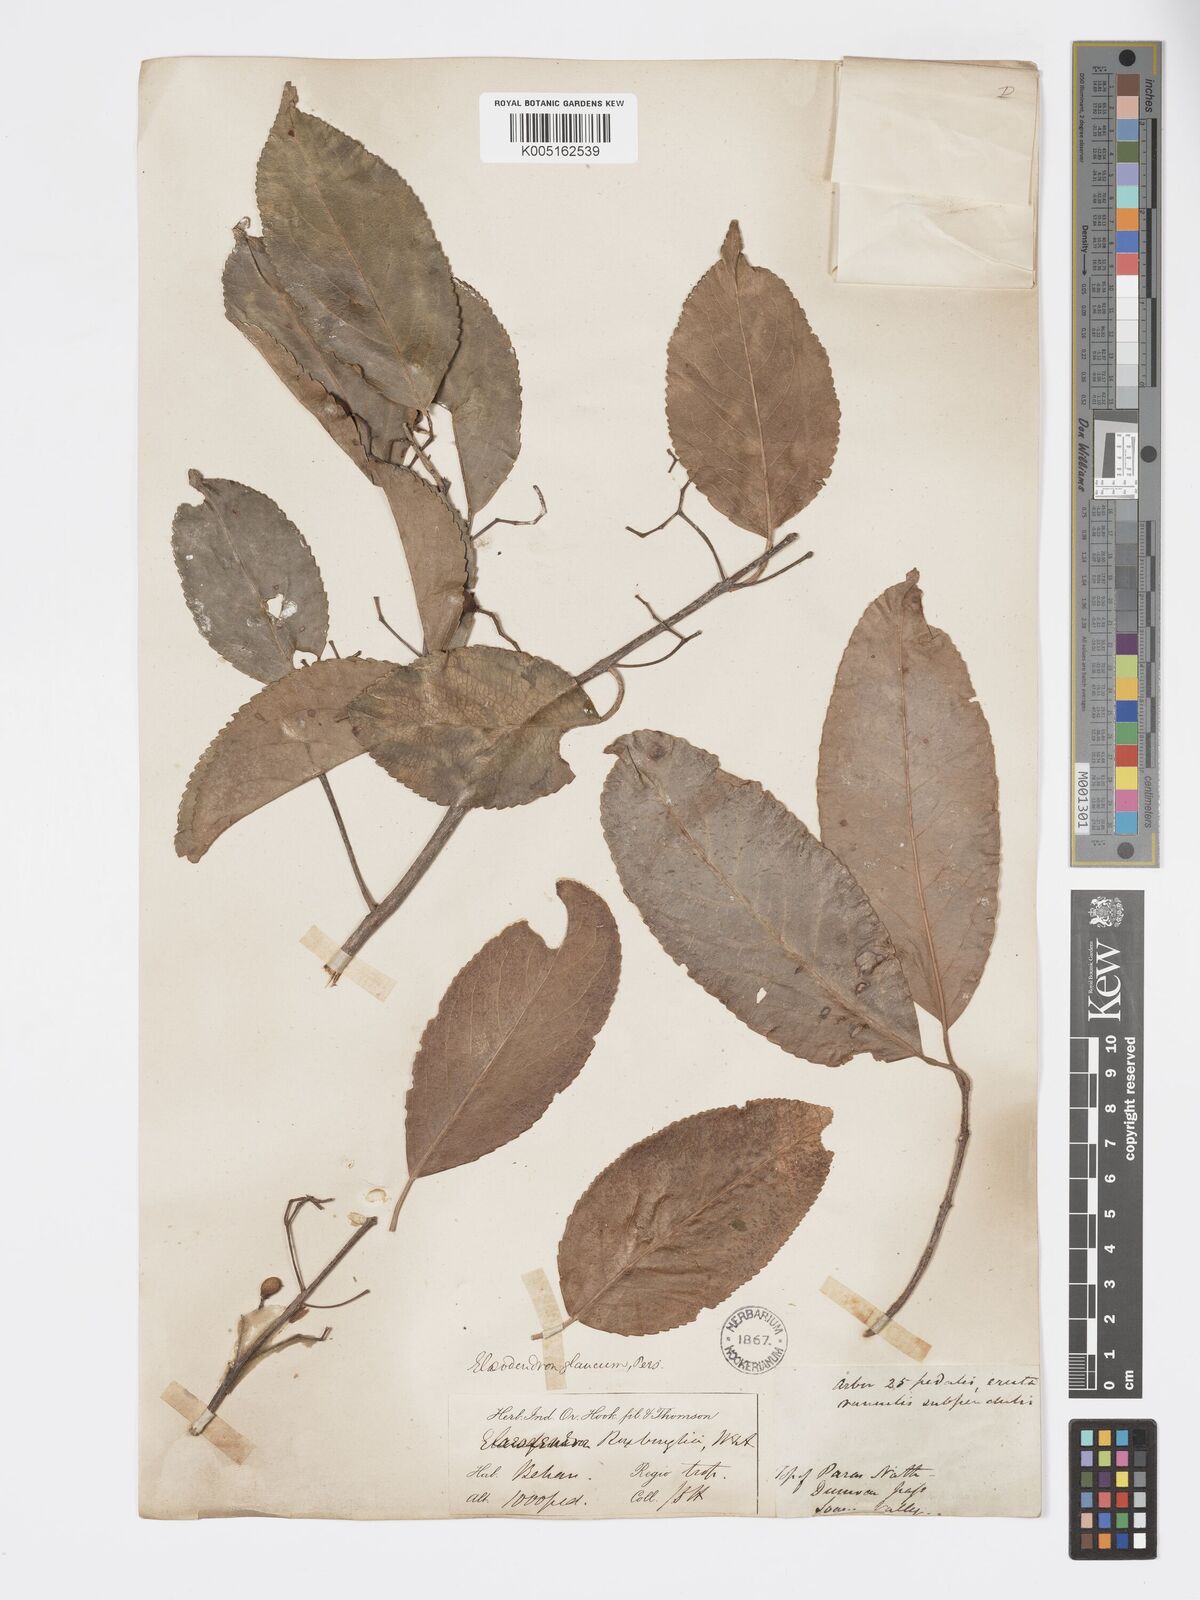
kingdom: Plantae
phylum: Tracheophyta
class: Magnoliopsida
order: Celastrales
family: Celastraceae
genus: Elaeodendron
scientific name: Elaeodendron glaucum
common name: Ceylon-tea
